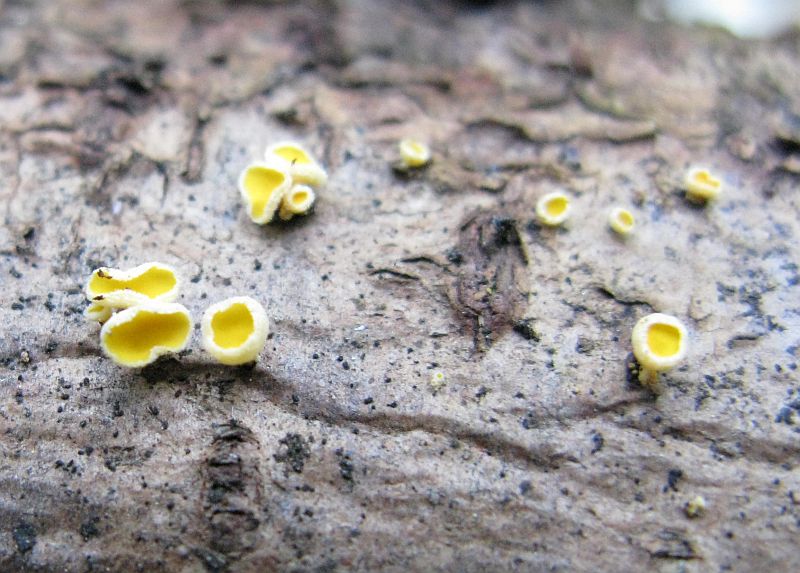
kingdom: Fungi
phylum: Ascomycota
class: Leotiomycetes
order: Helotiales
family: Lachnaceae
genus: Lachnellula
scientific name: Lachnellula subtilissima
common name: gran-frynseskive
